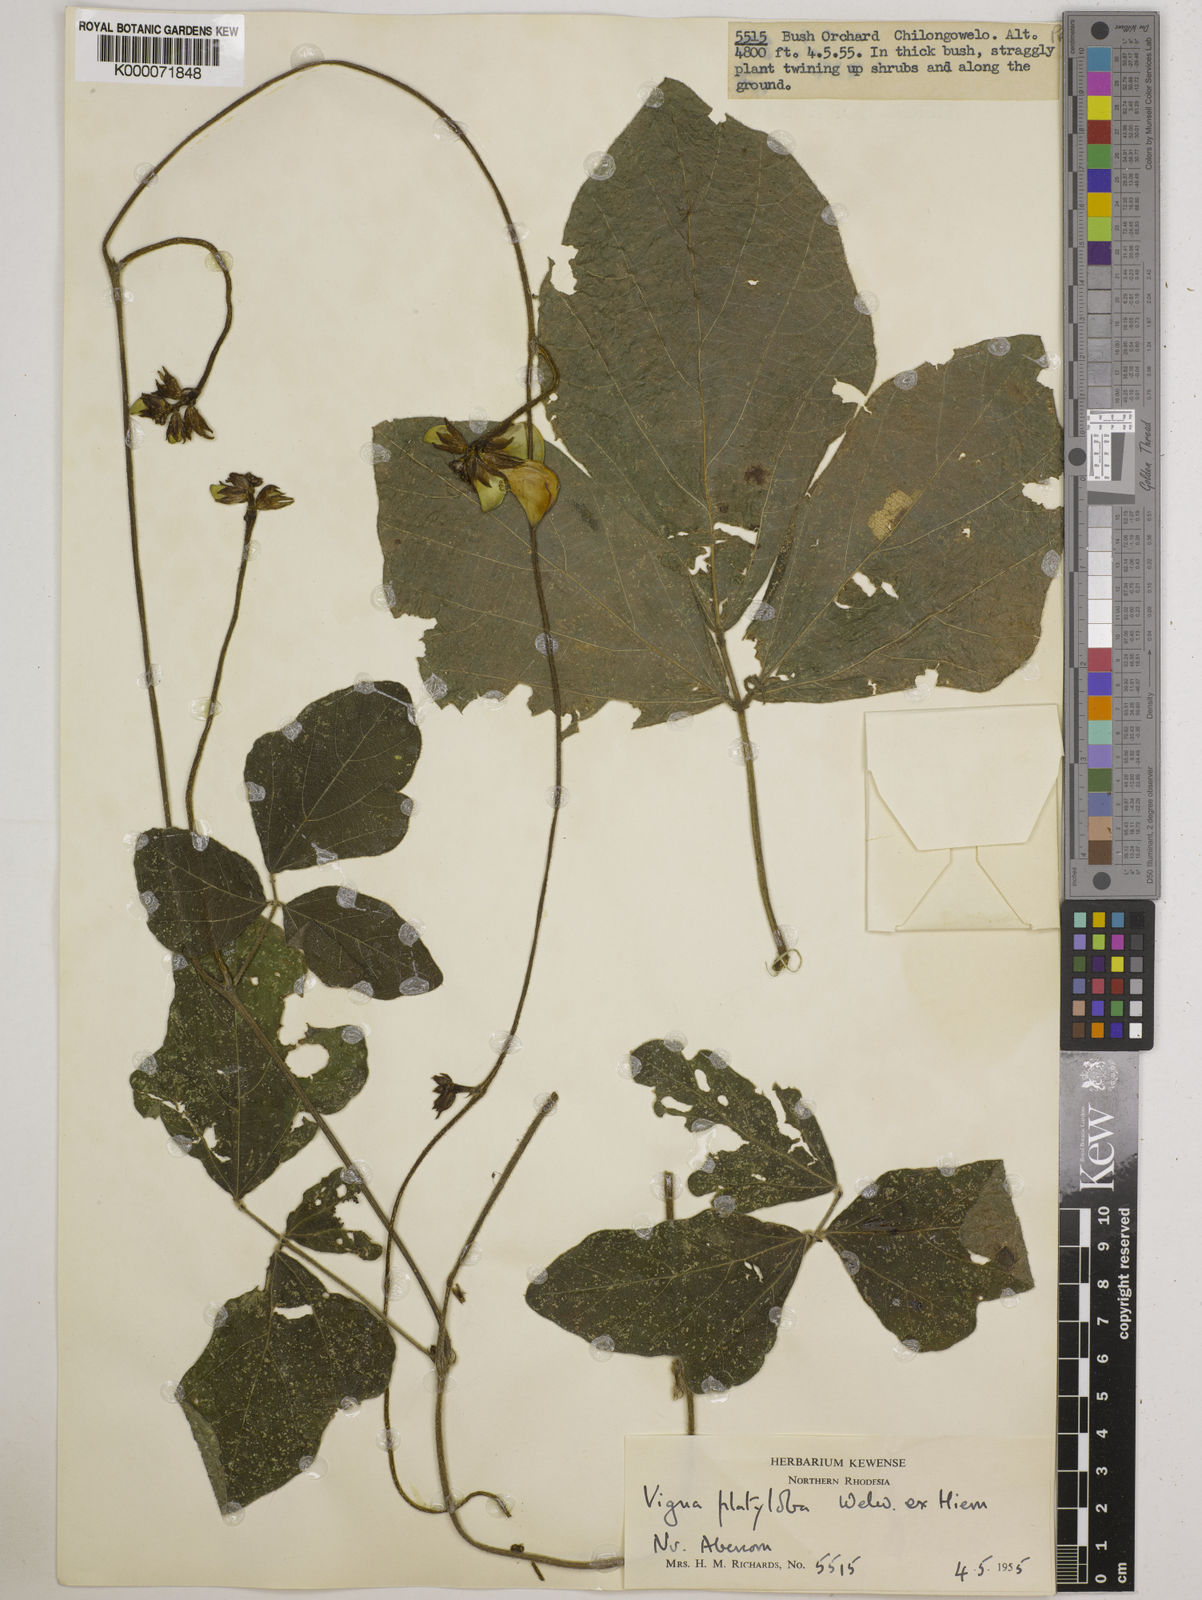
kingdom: Plantae
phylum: Tracheophyta
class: Magnoliopsida
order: Fabales
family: Fabaceae
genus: Vigna
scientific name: Vigna platyloba
